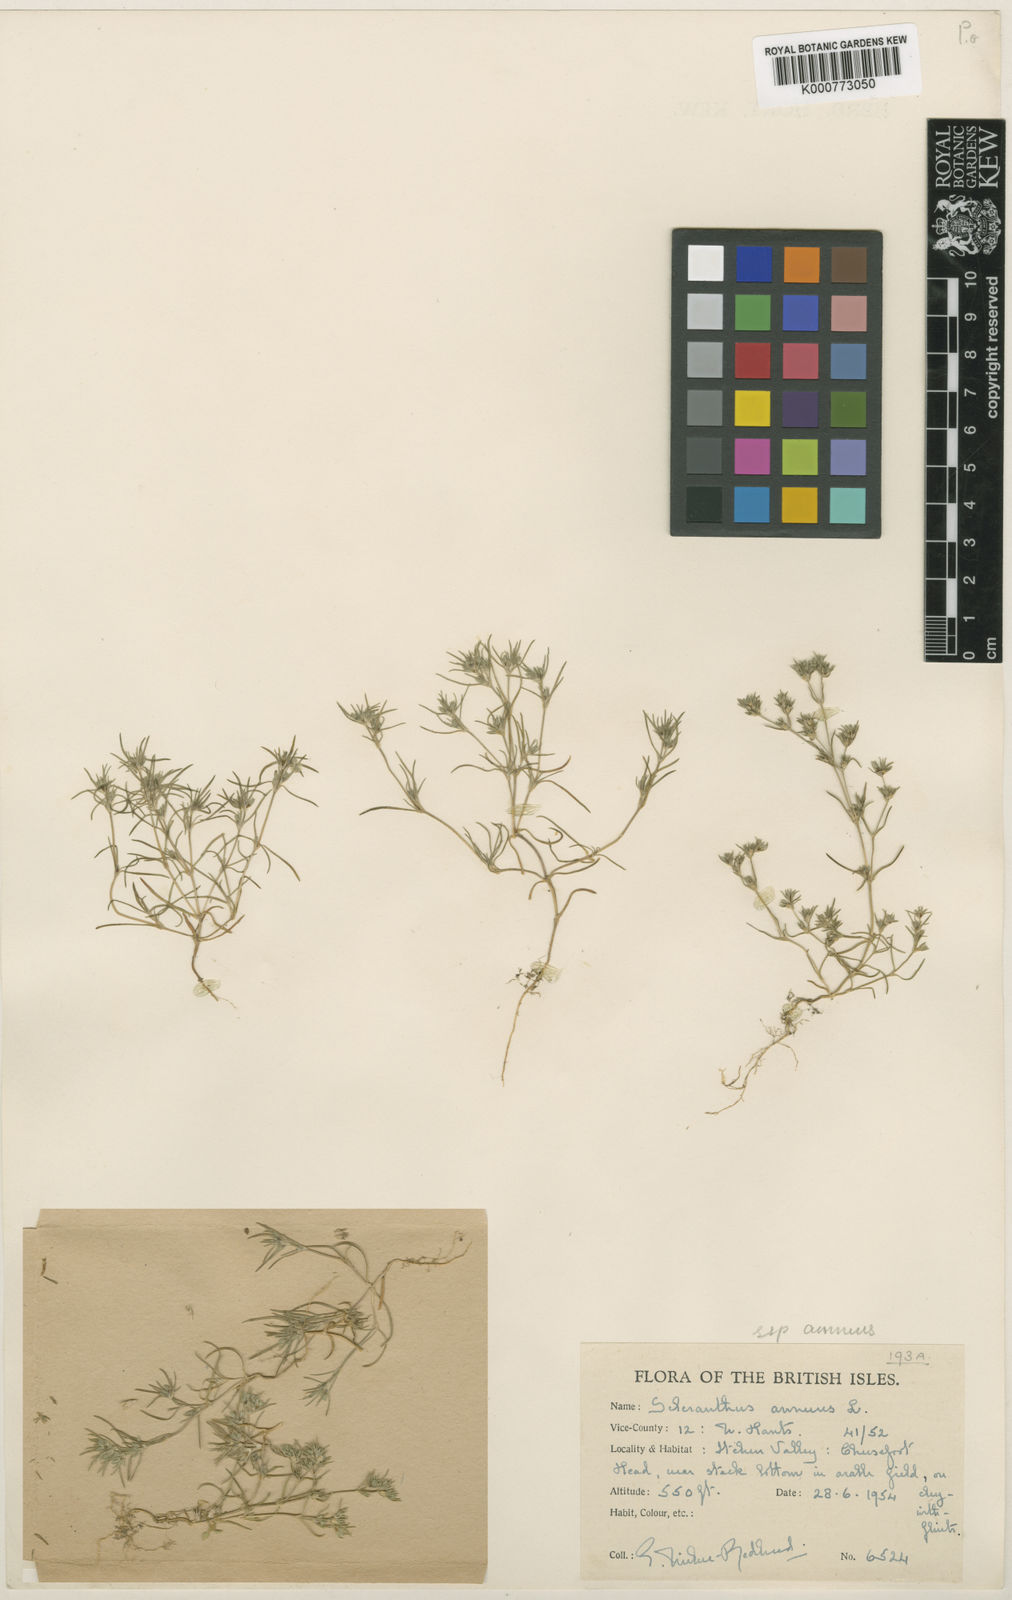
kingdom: Plantae
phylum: Tracheophyta
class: Magnoliopsida
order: Caryophyllales
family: Caryophyllaceae
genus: Scleranthus
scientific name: Scleranthus annuus
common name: Annual knawel
